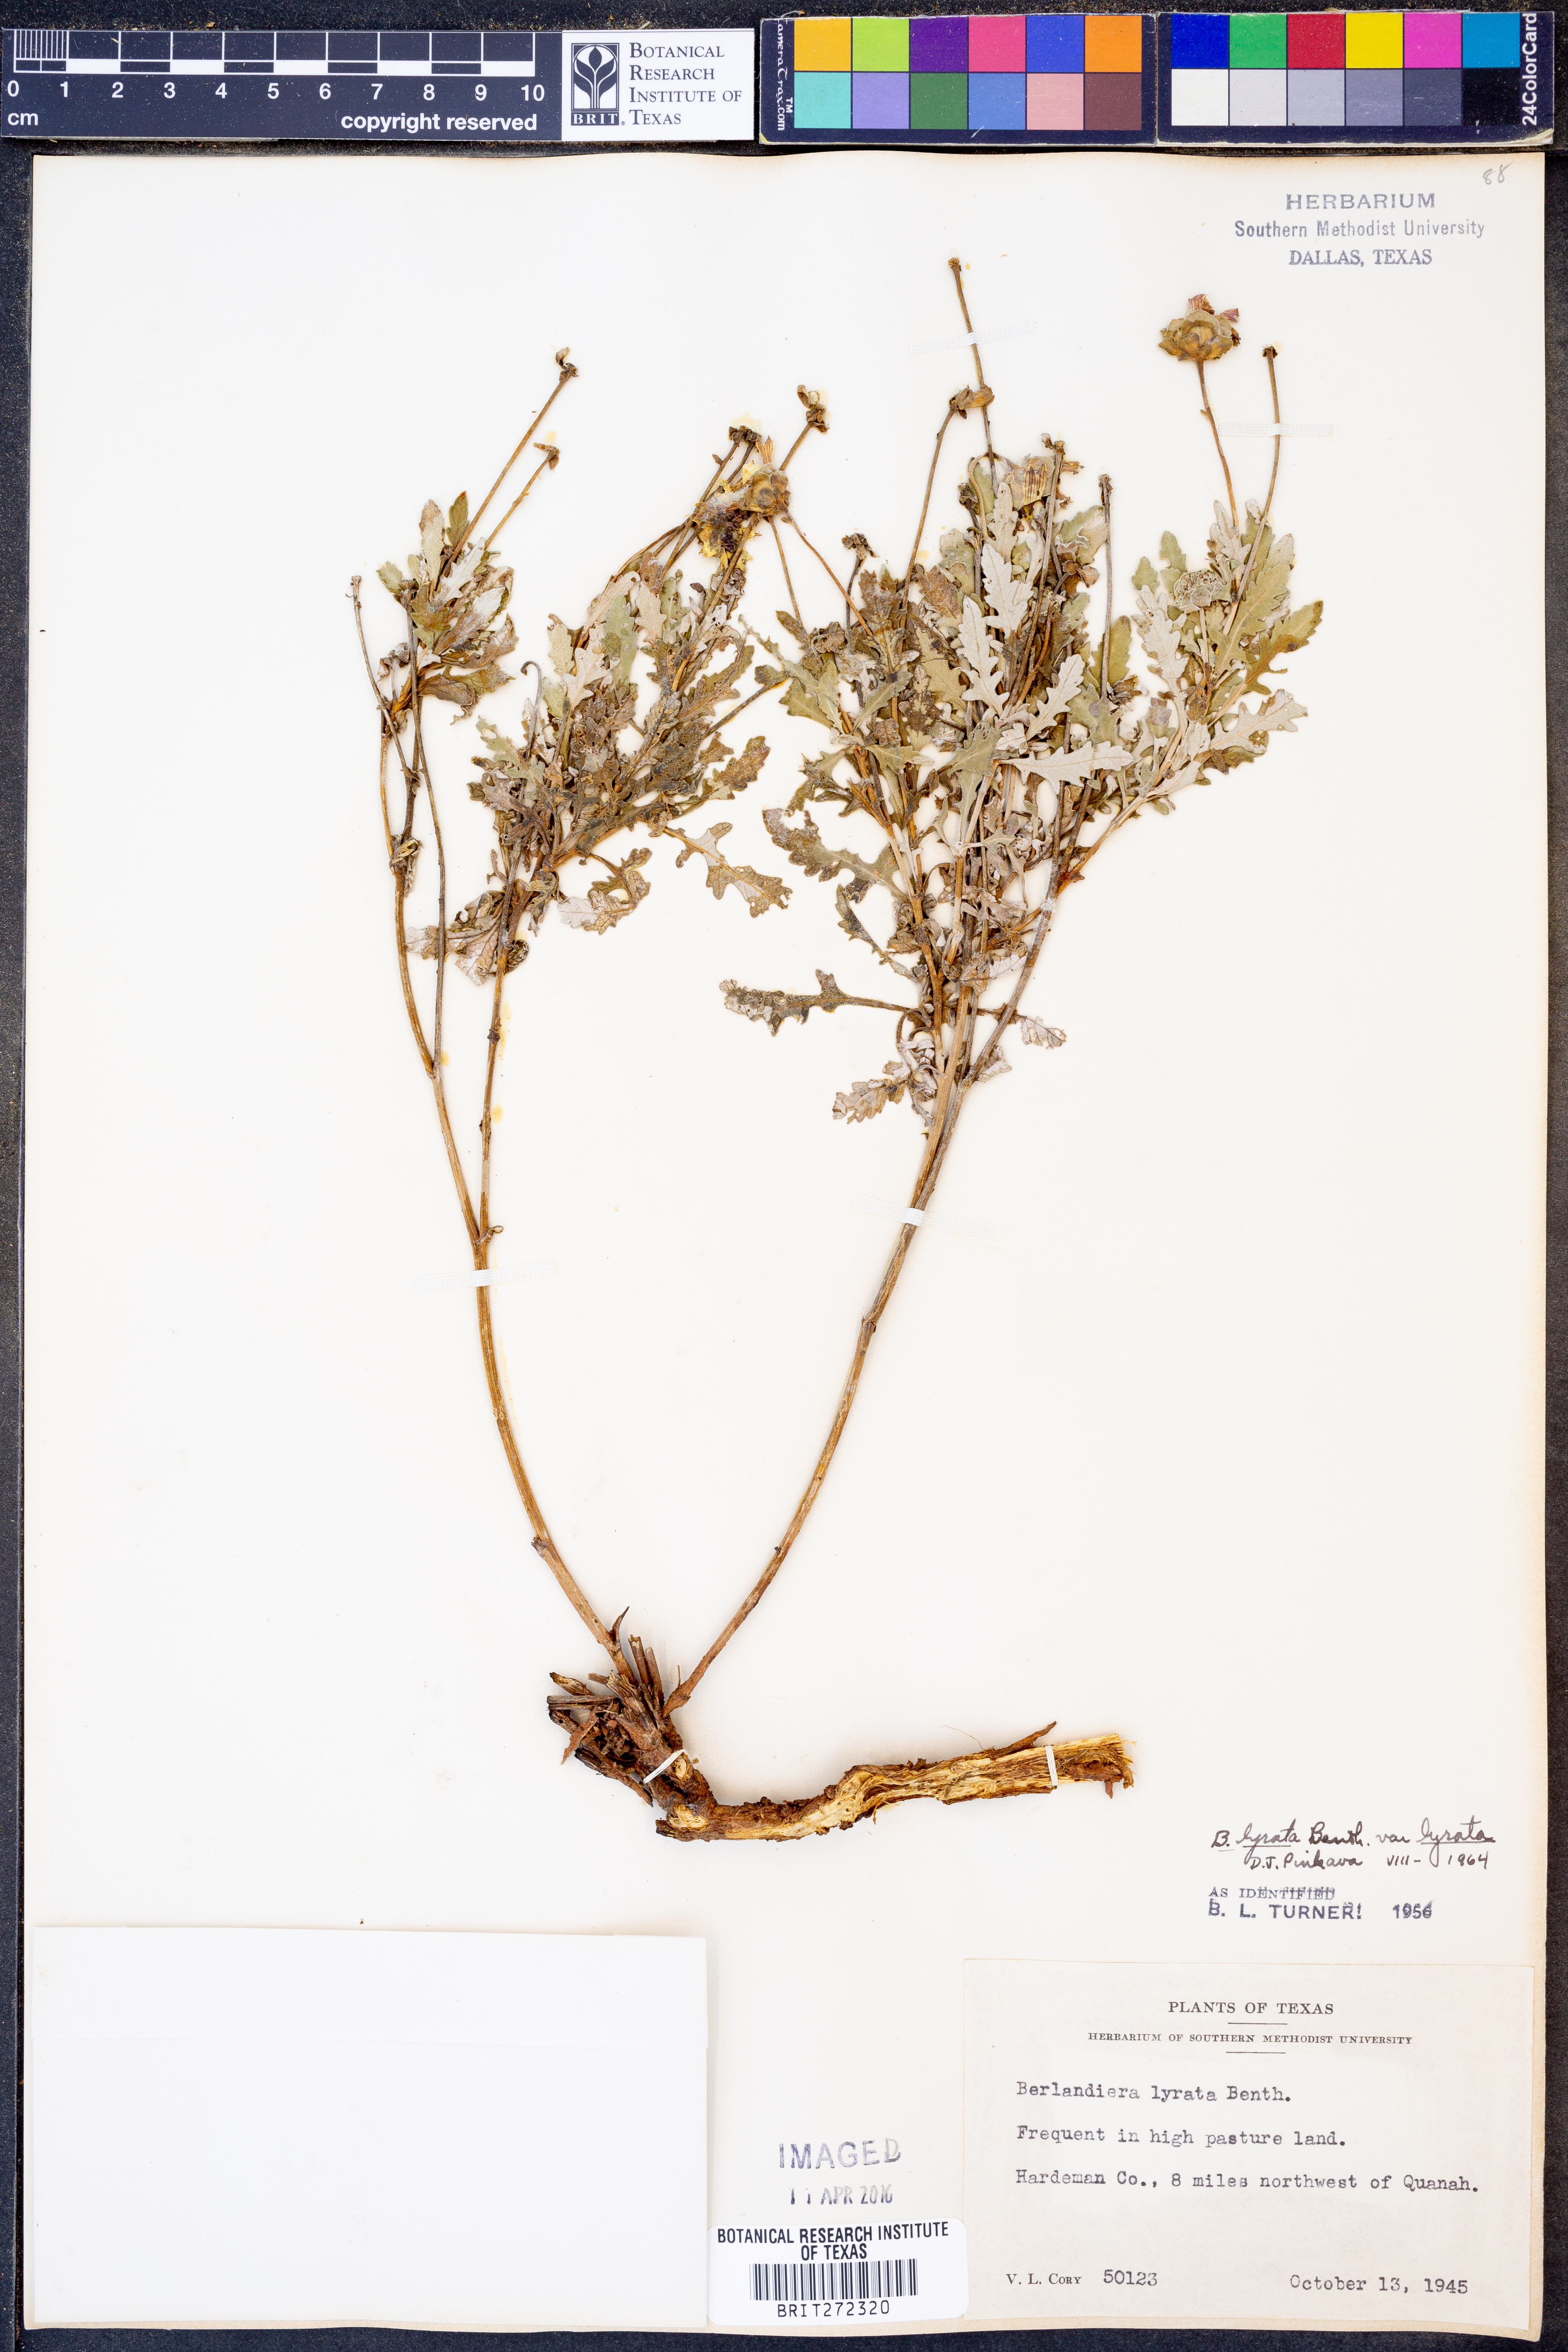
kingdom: Plantae
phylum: Tracheophyta
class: Magnoliopsida
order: Asterales
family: Asteraceae
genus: Berlandiera
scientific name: Berlandiera lyrata
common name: Chocolate-flower
